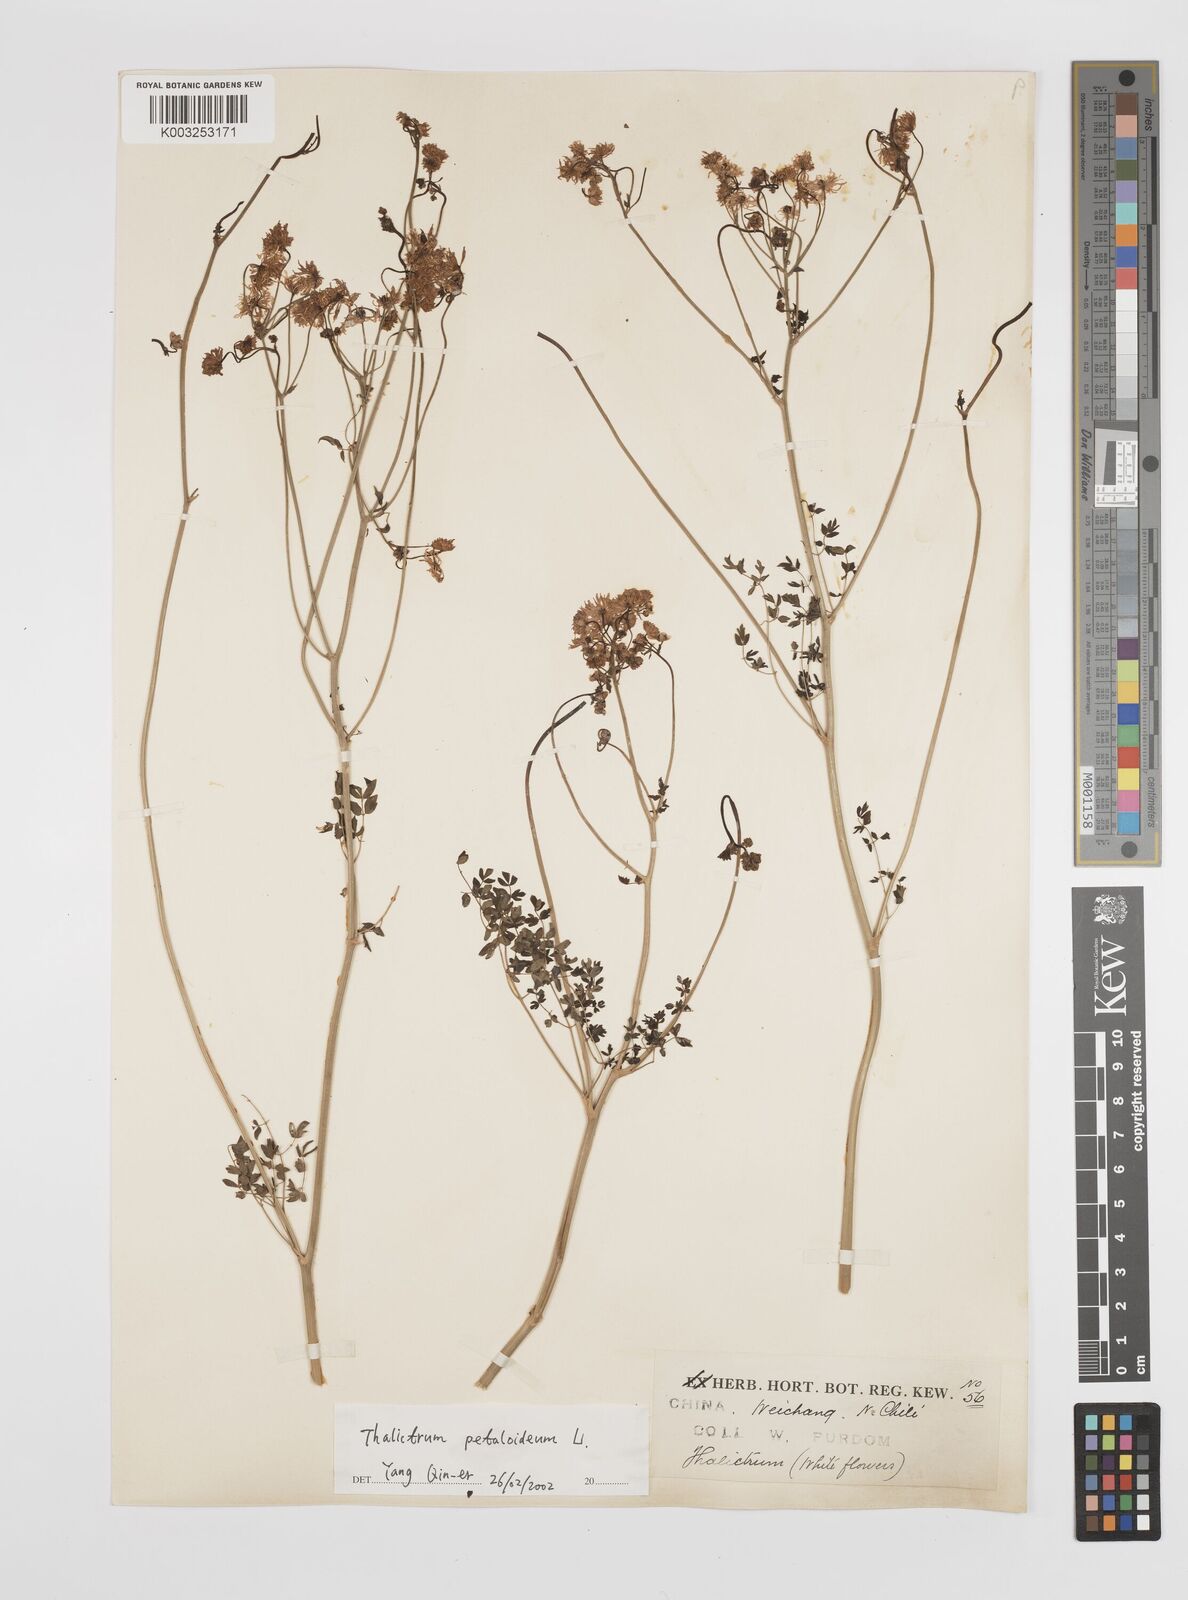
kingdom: Plantae
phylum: Tracheophyta
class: Magnoliopsida
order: Ranunculales
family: Ranunculaceae
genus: Thalictrum
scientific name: Thalictrum petaloideum
